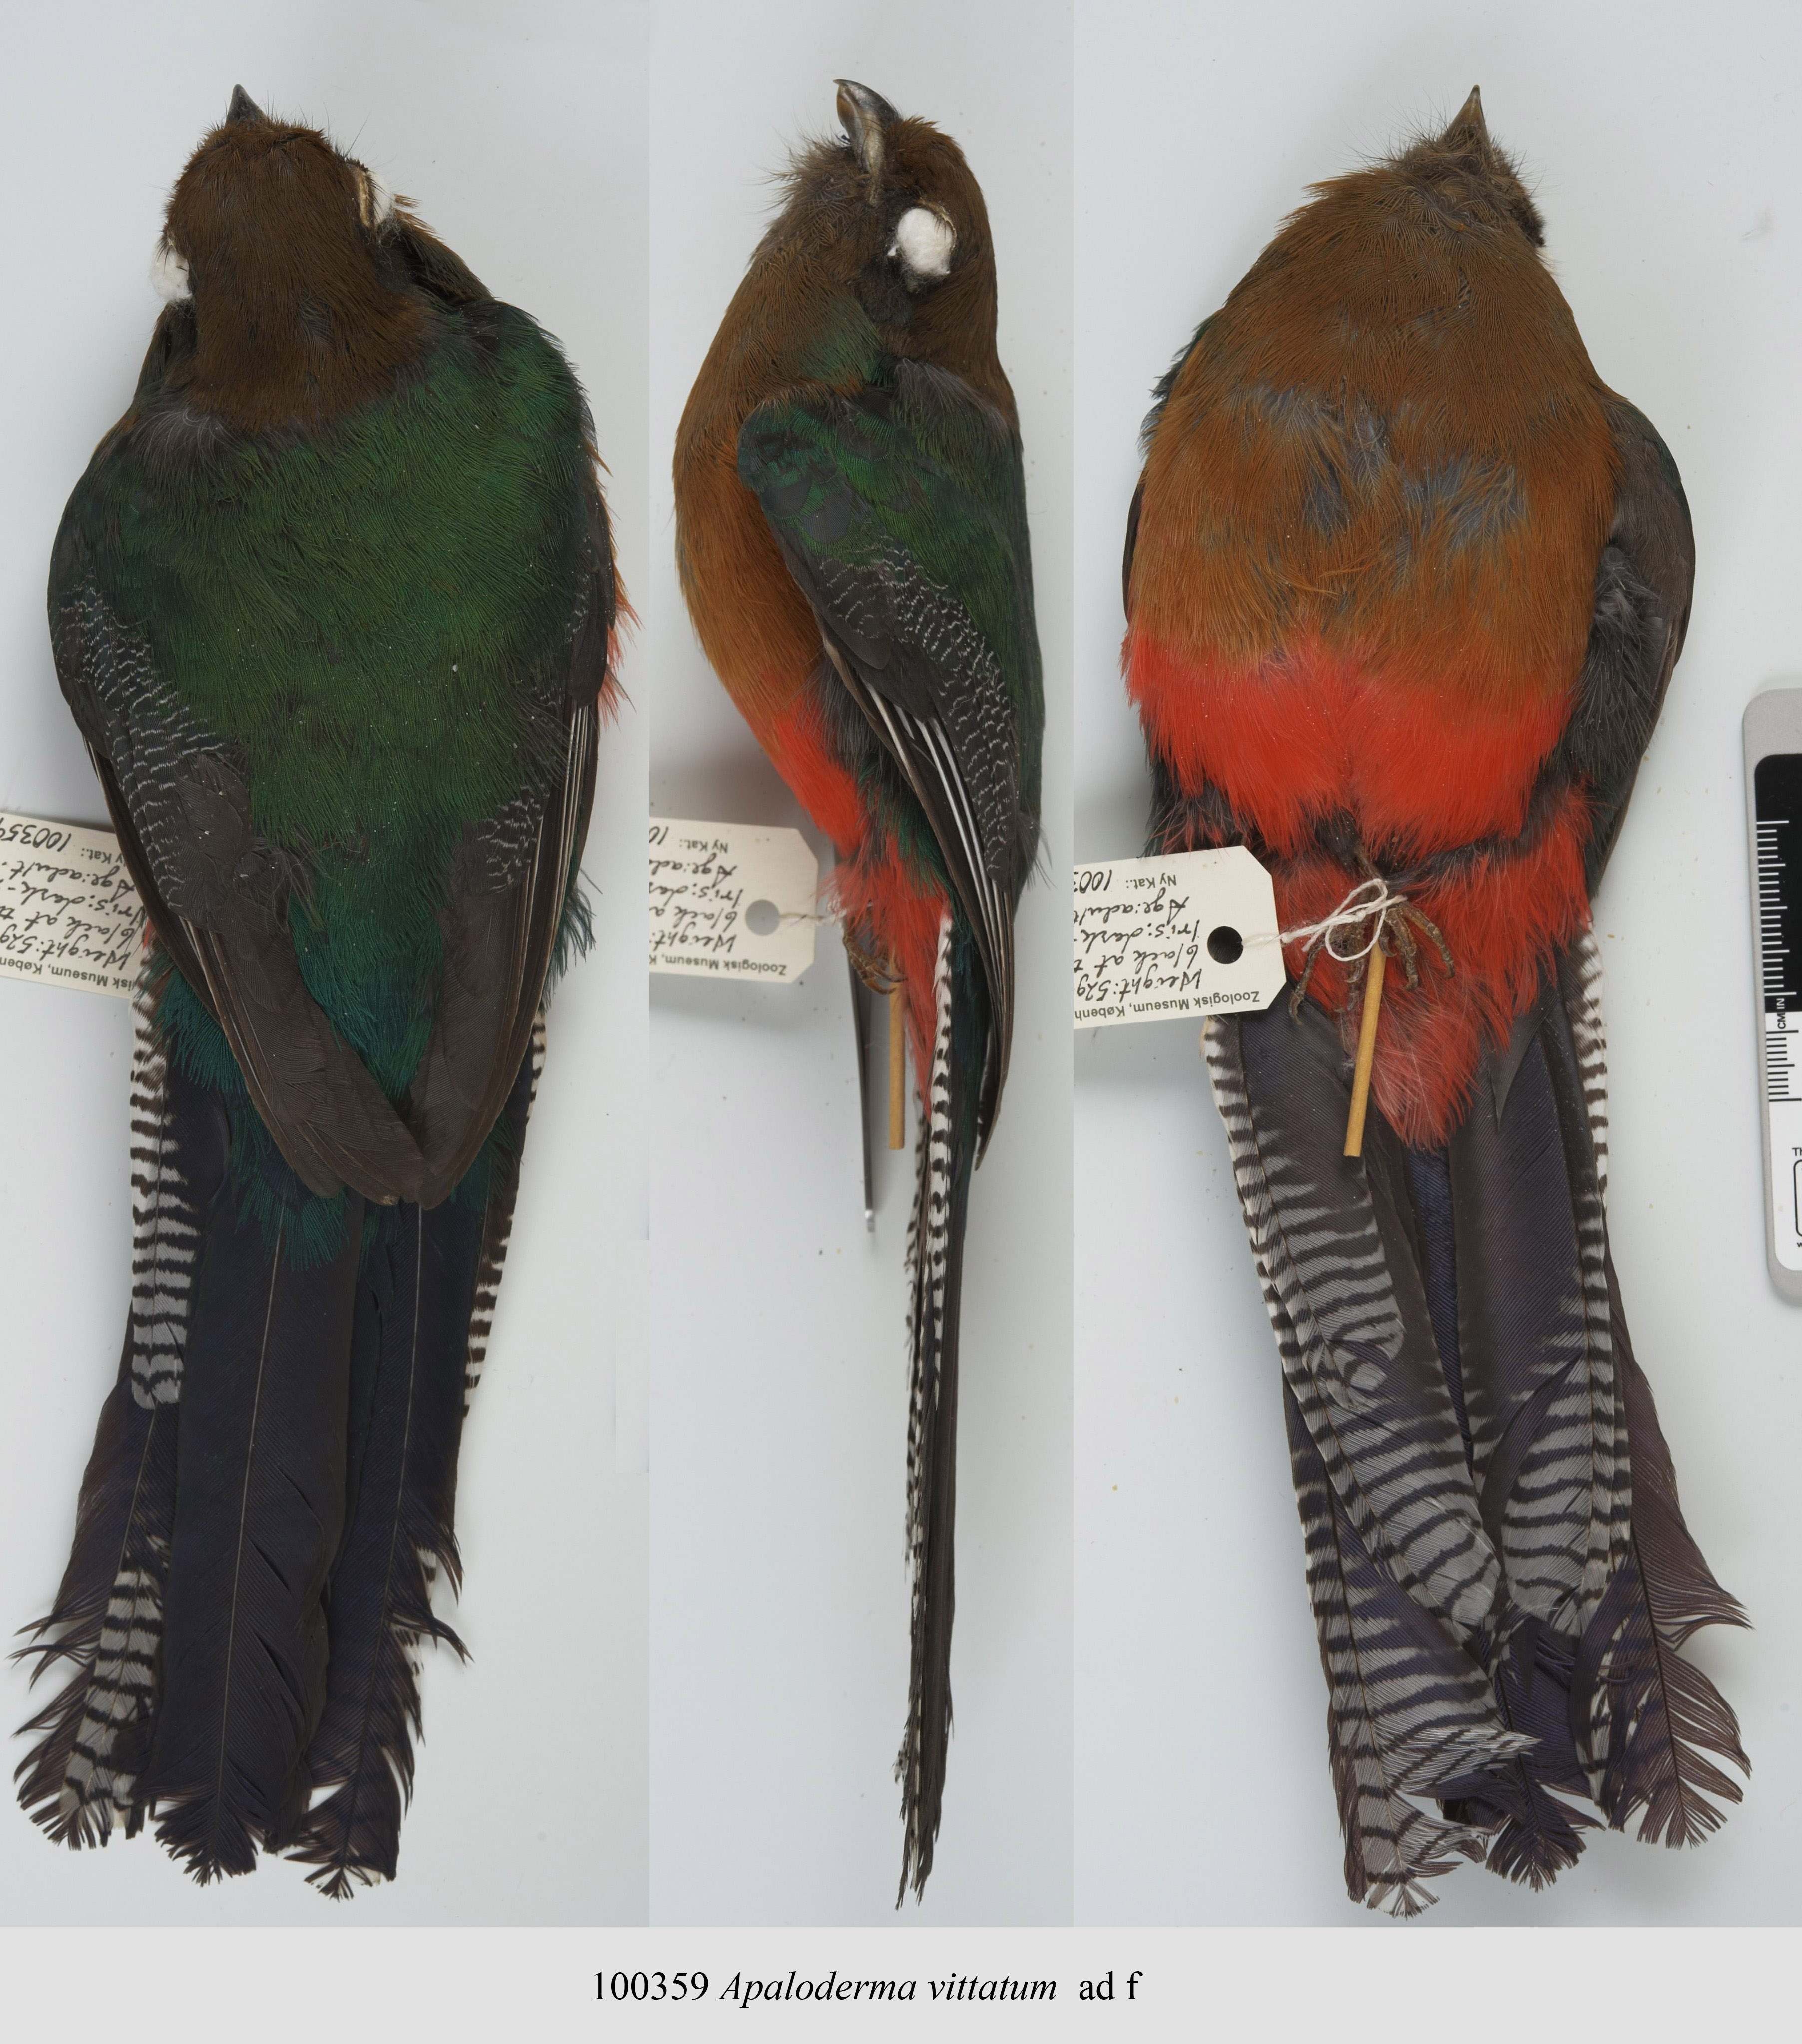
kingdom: Animalia
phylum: Chordata
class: Aves
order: Trogoniformes
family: Trogonidae
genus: Apaloderma
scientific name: Apaloderma vittatum
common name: Bar-tailed trogon
